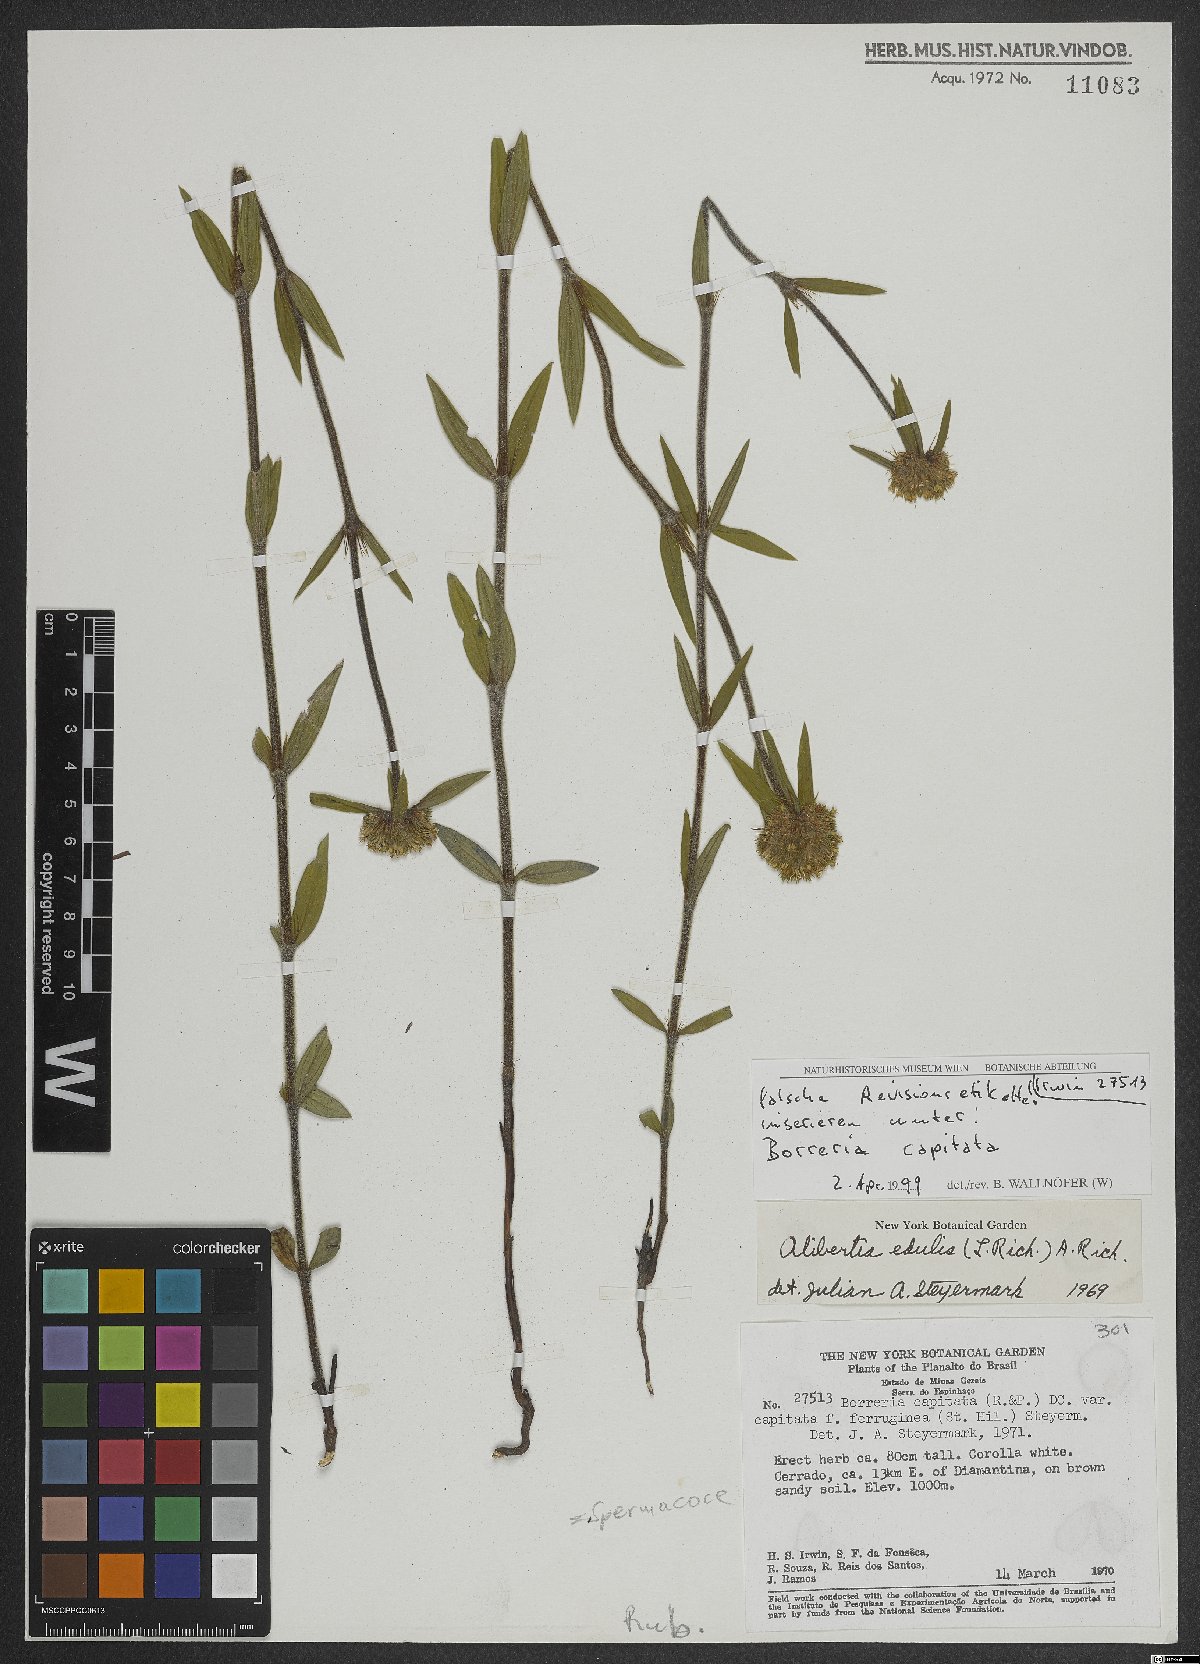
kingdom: Plantae
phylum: Tracheophyta
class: Magnoliopsida
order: Gentianales
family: Rubiaceae
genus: Spermacoce
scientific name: Spermacoce capitata
